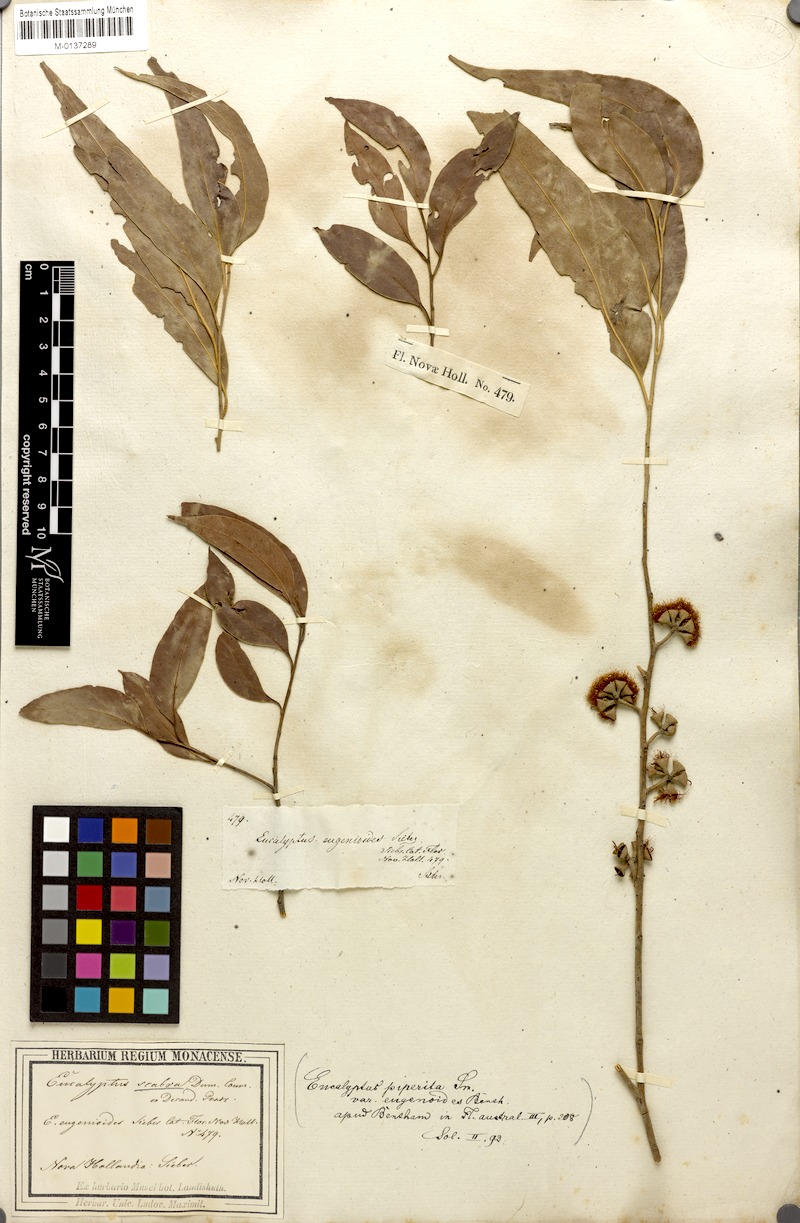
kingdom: Plantae
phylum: Tracheophyta
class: Magnoliopsida
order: Myrtales
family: Myrtaceae
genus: Eucalyptus
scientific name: Eucalyptus eugenioides
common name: Narrow-leaved-stringybark
